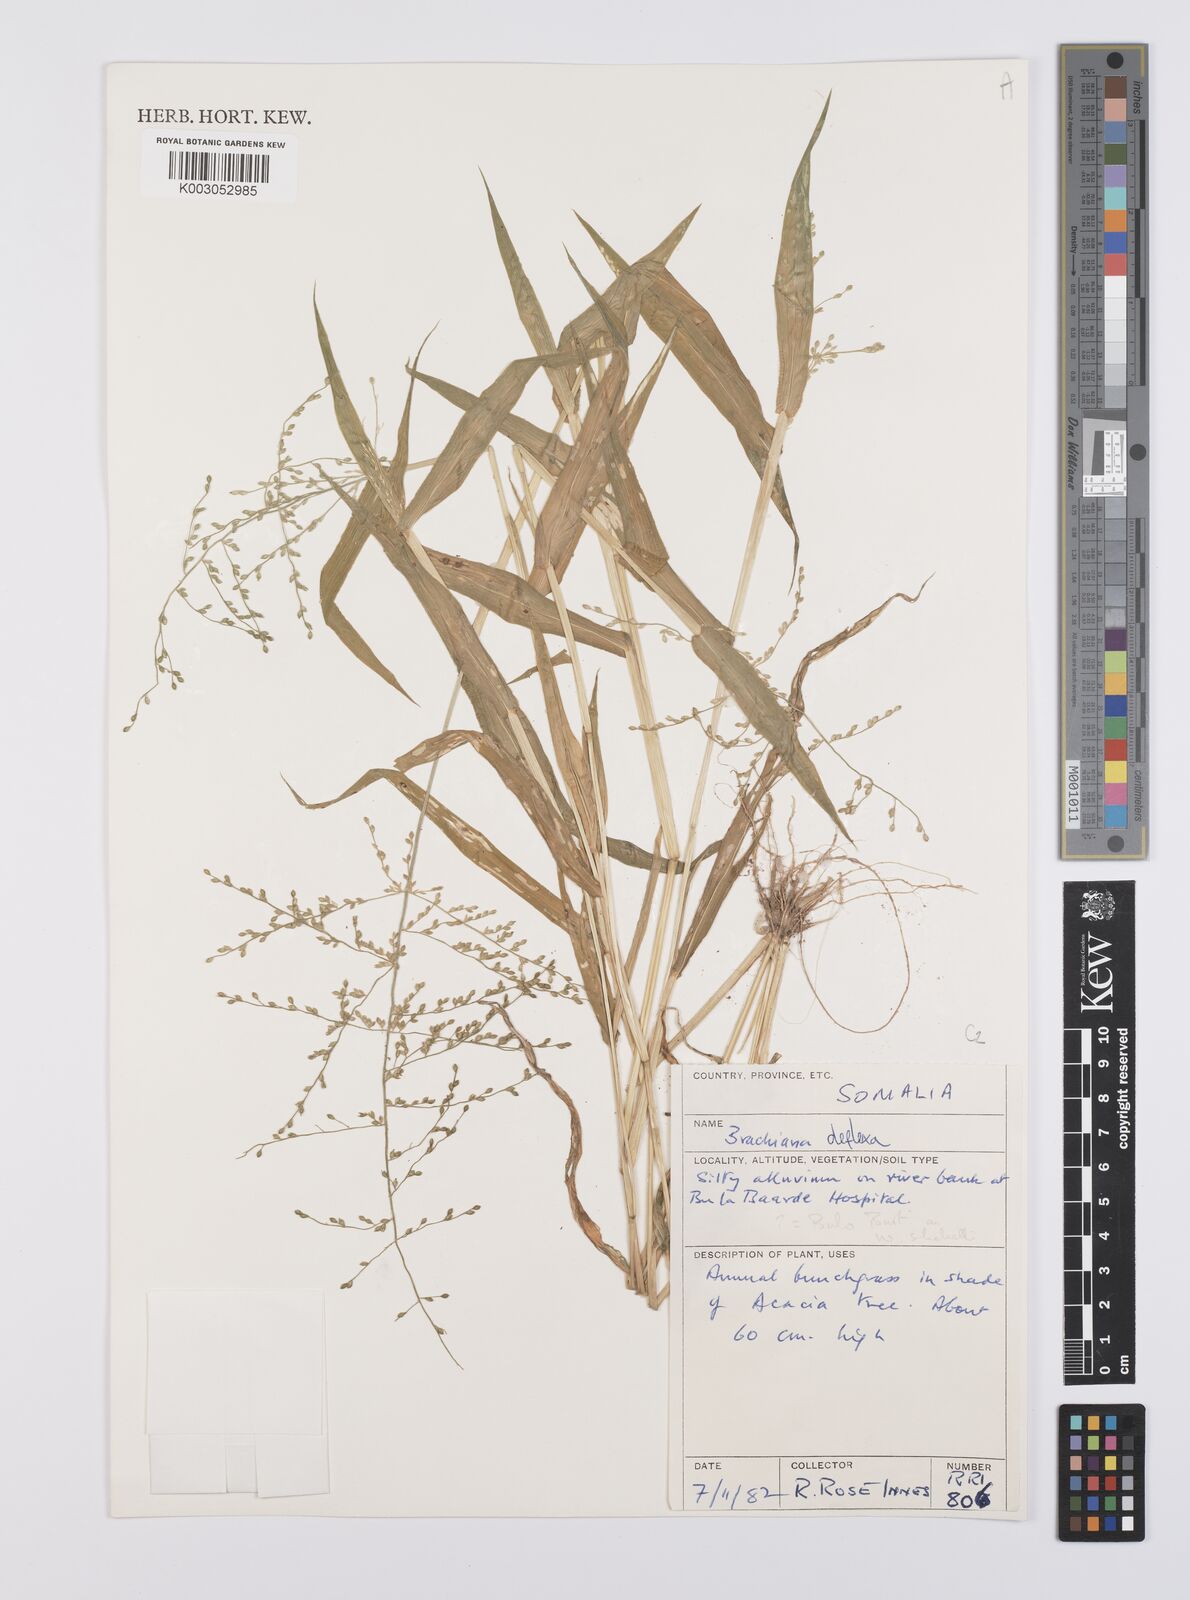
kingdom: Plantae
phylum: Tracheophyta
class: Liliopsida
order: Poales
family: Poaceae
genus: Urochloa
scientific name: Urochloa deflexa
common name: Guinea millet
